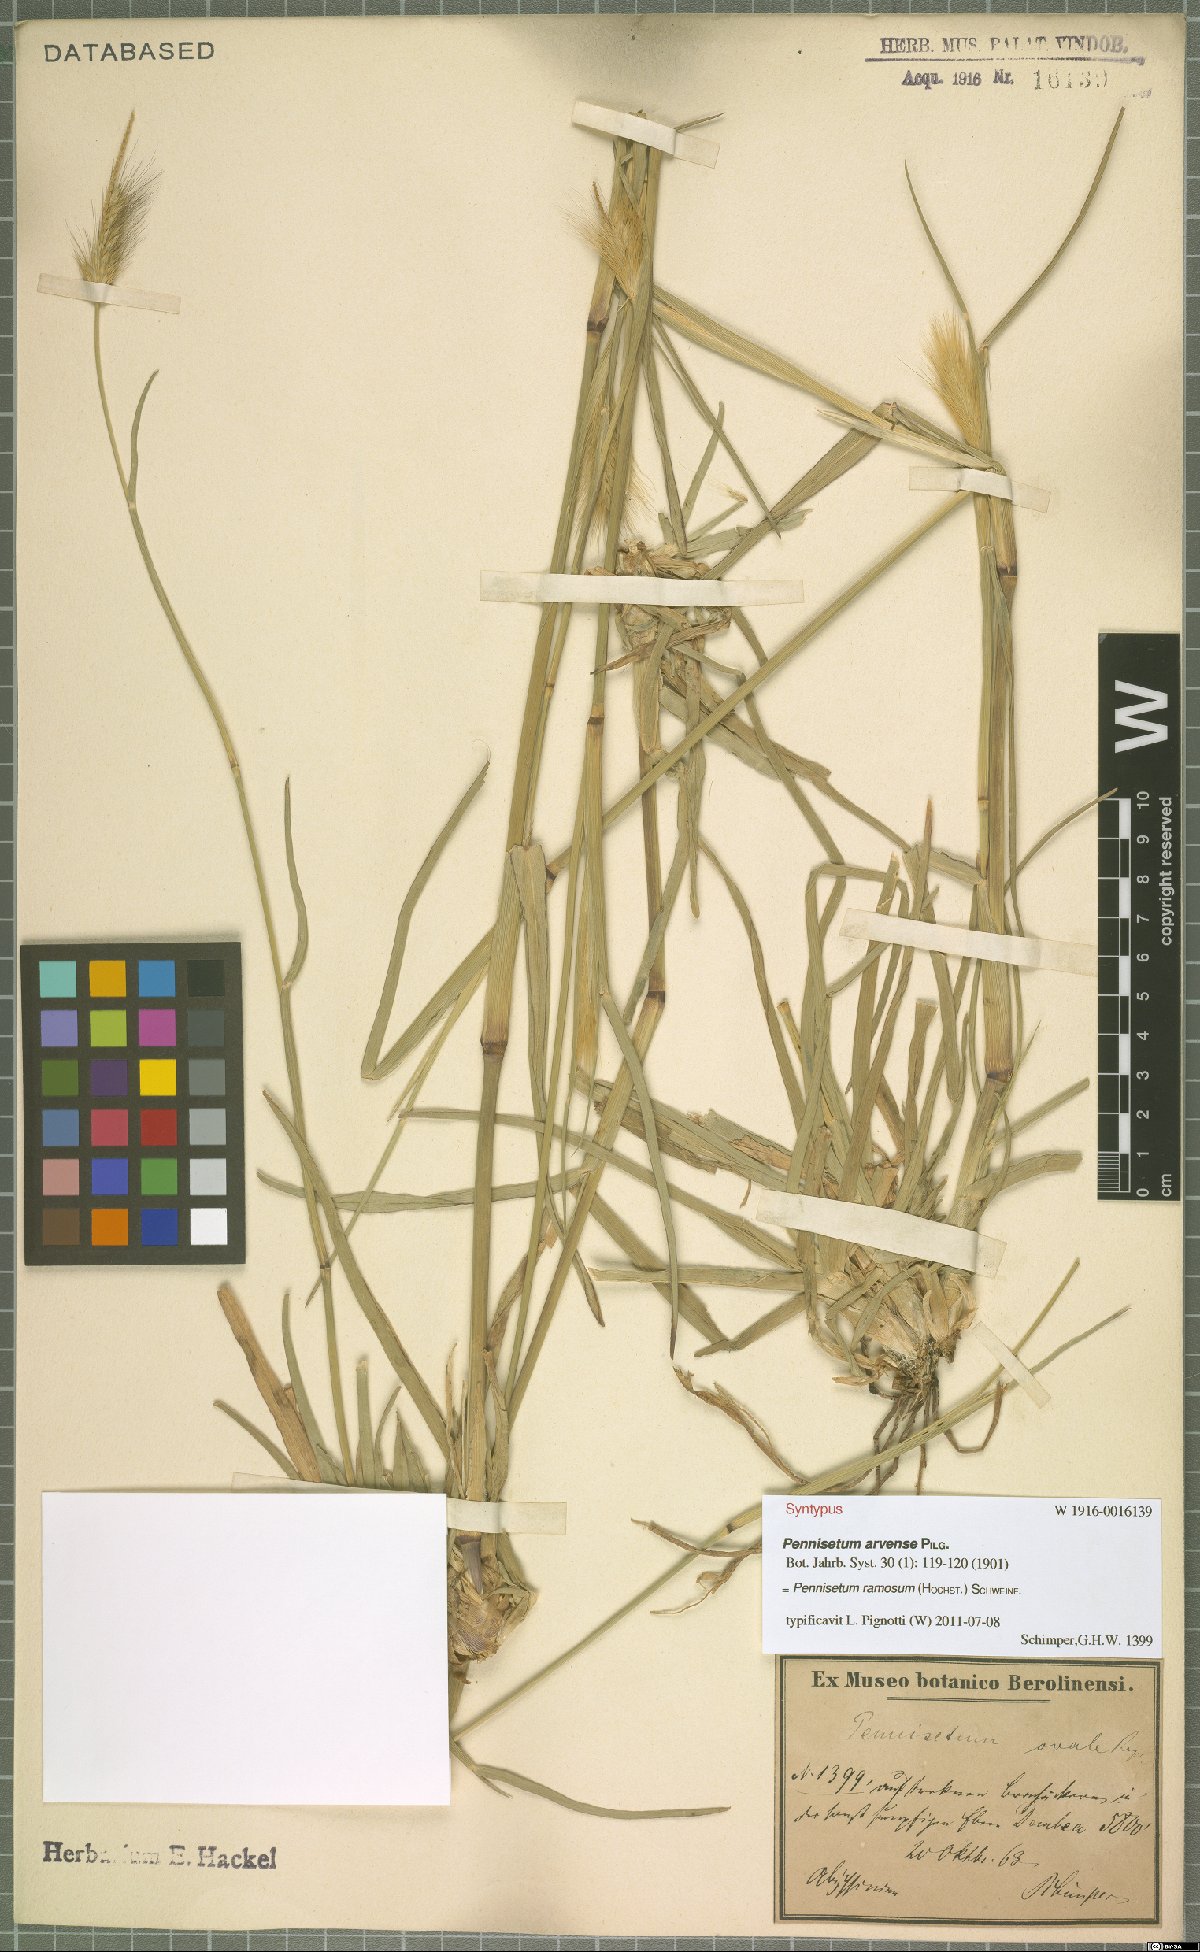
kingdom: Plantae
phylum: Tracheophyta
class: Liliopsida
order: Poales
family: Poaceae
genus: Cenchrus
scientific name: Cenchrus ramosus
